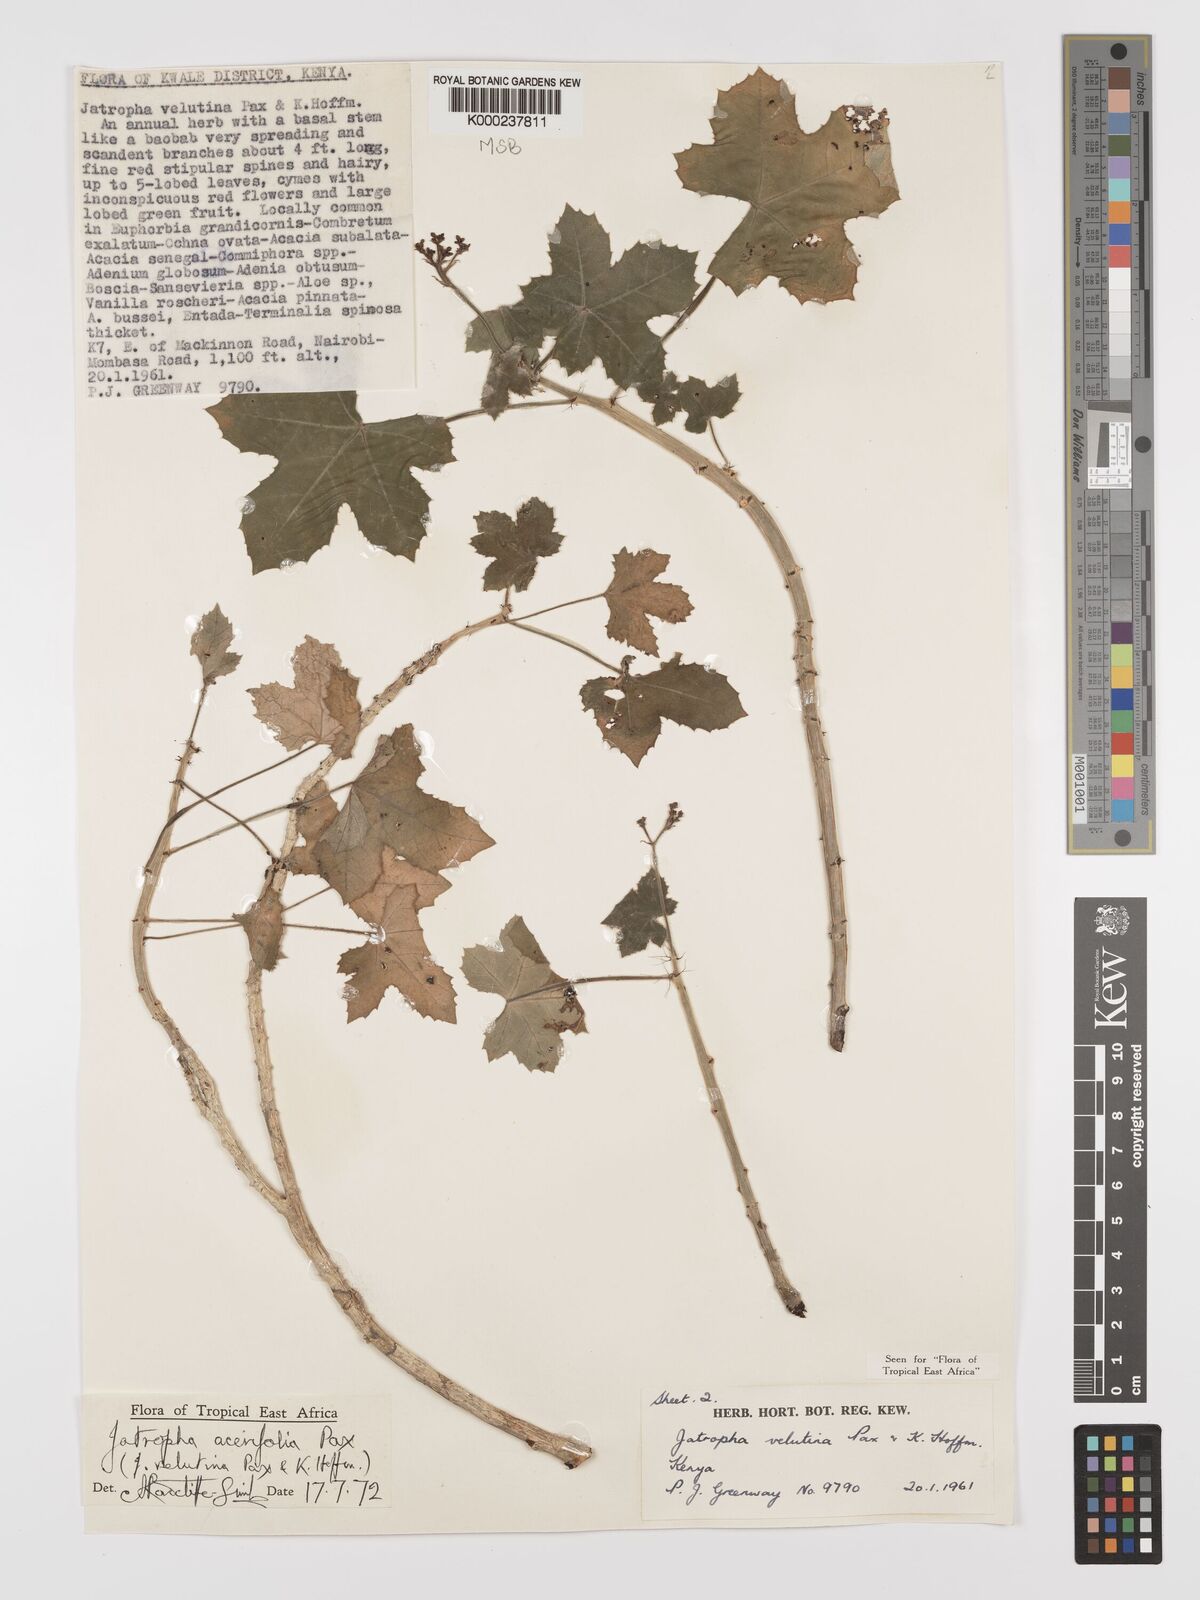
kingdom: Plantae
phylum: Tracheophyta
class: Magnoliopsida
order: Malpighiales
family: Euphorbiaceae
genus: Jatropha
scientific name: Jatropha velutina
